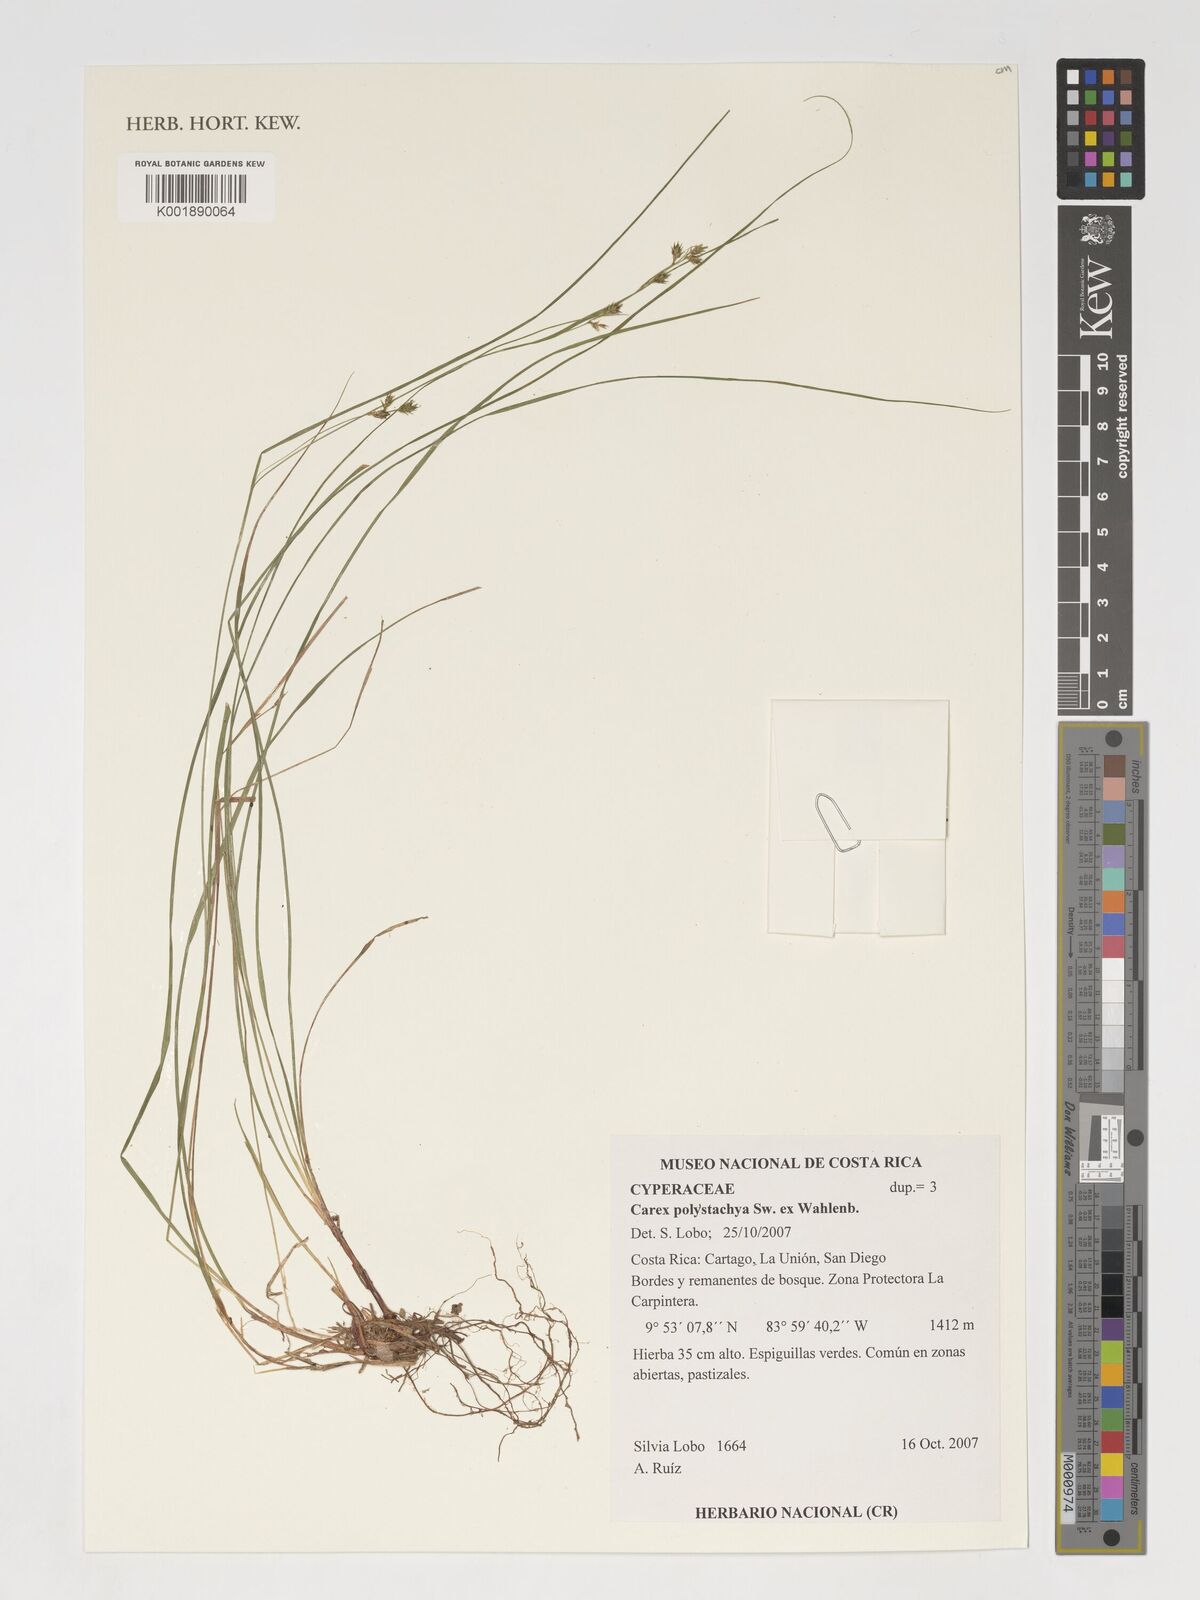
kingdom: Plantae
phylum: Tracheophyta
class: Liliopsida
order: Poales
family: Cyperaceae
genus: Carex
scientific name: Carex polystachya
